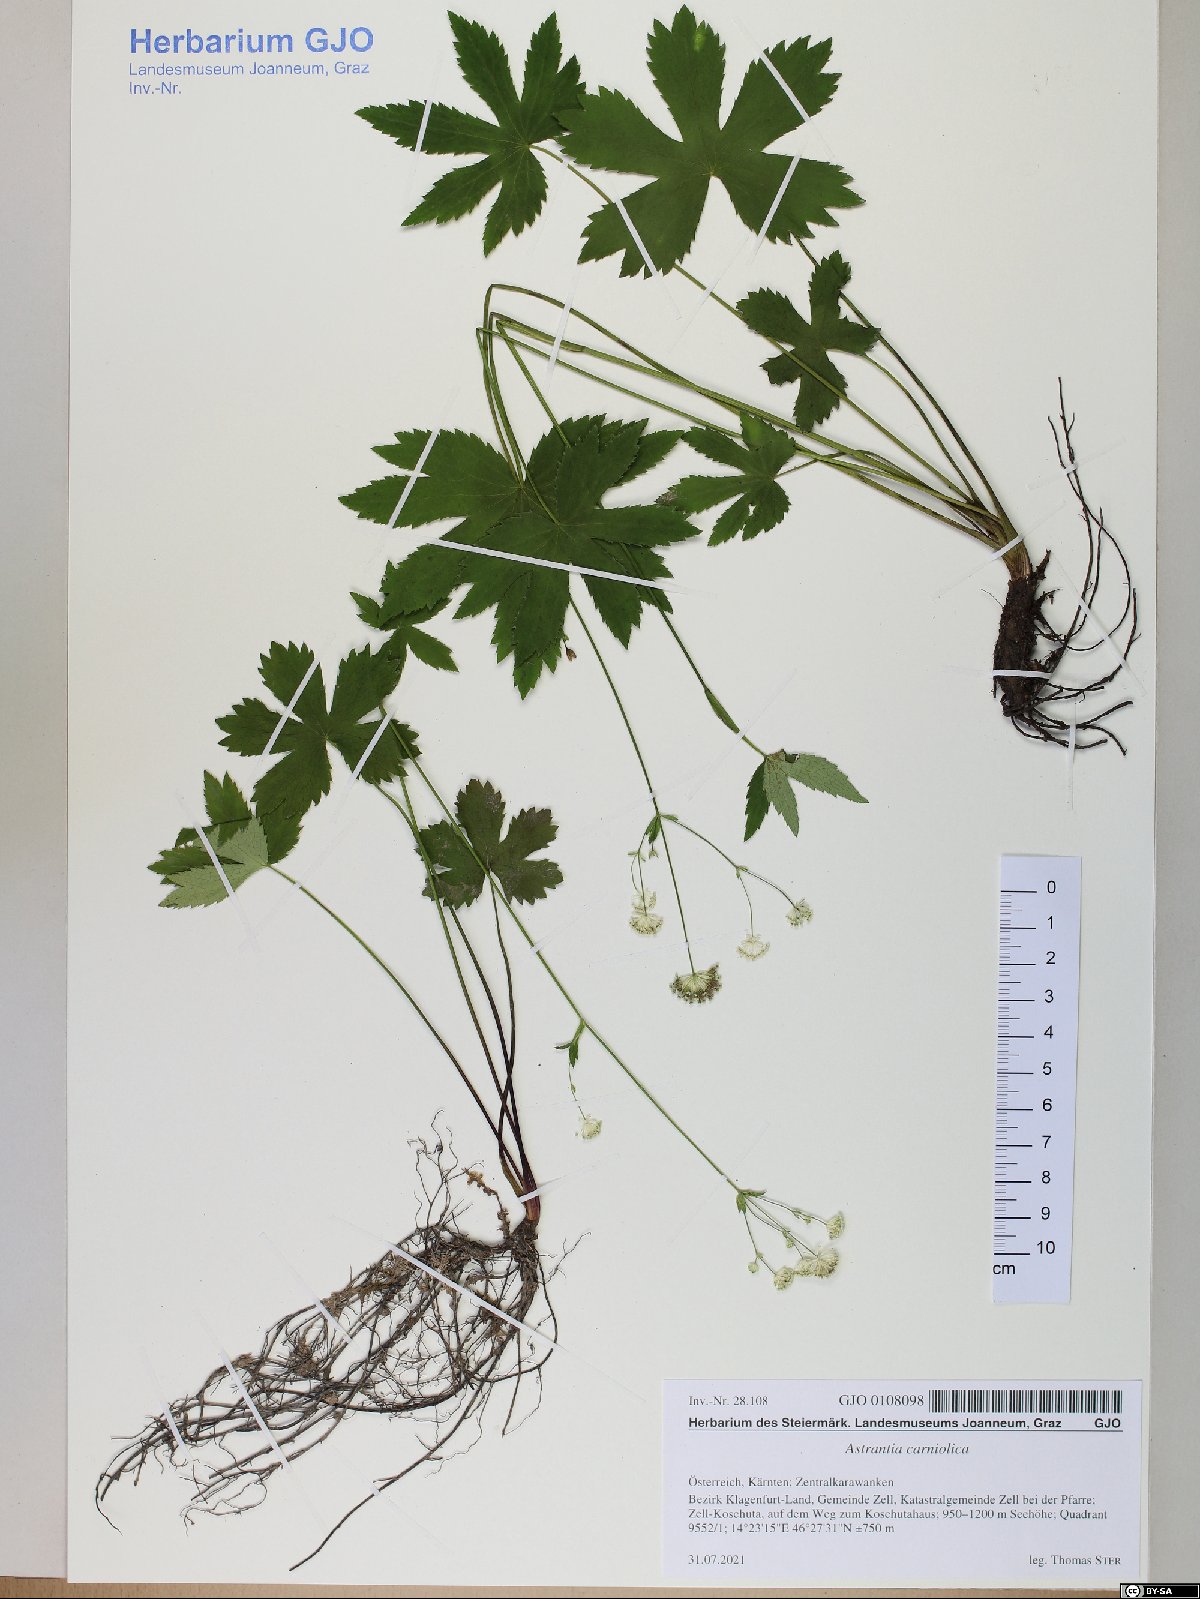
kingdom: Plantae
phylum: Tracheophyta
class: Magnoliopsida
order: Apiales
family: Apiaceae
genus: Astrantia
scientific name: Astrantia carniolica
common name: Carnic masterwort
